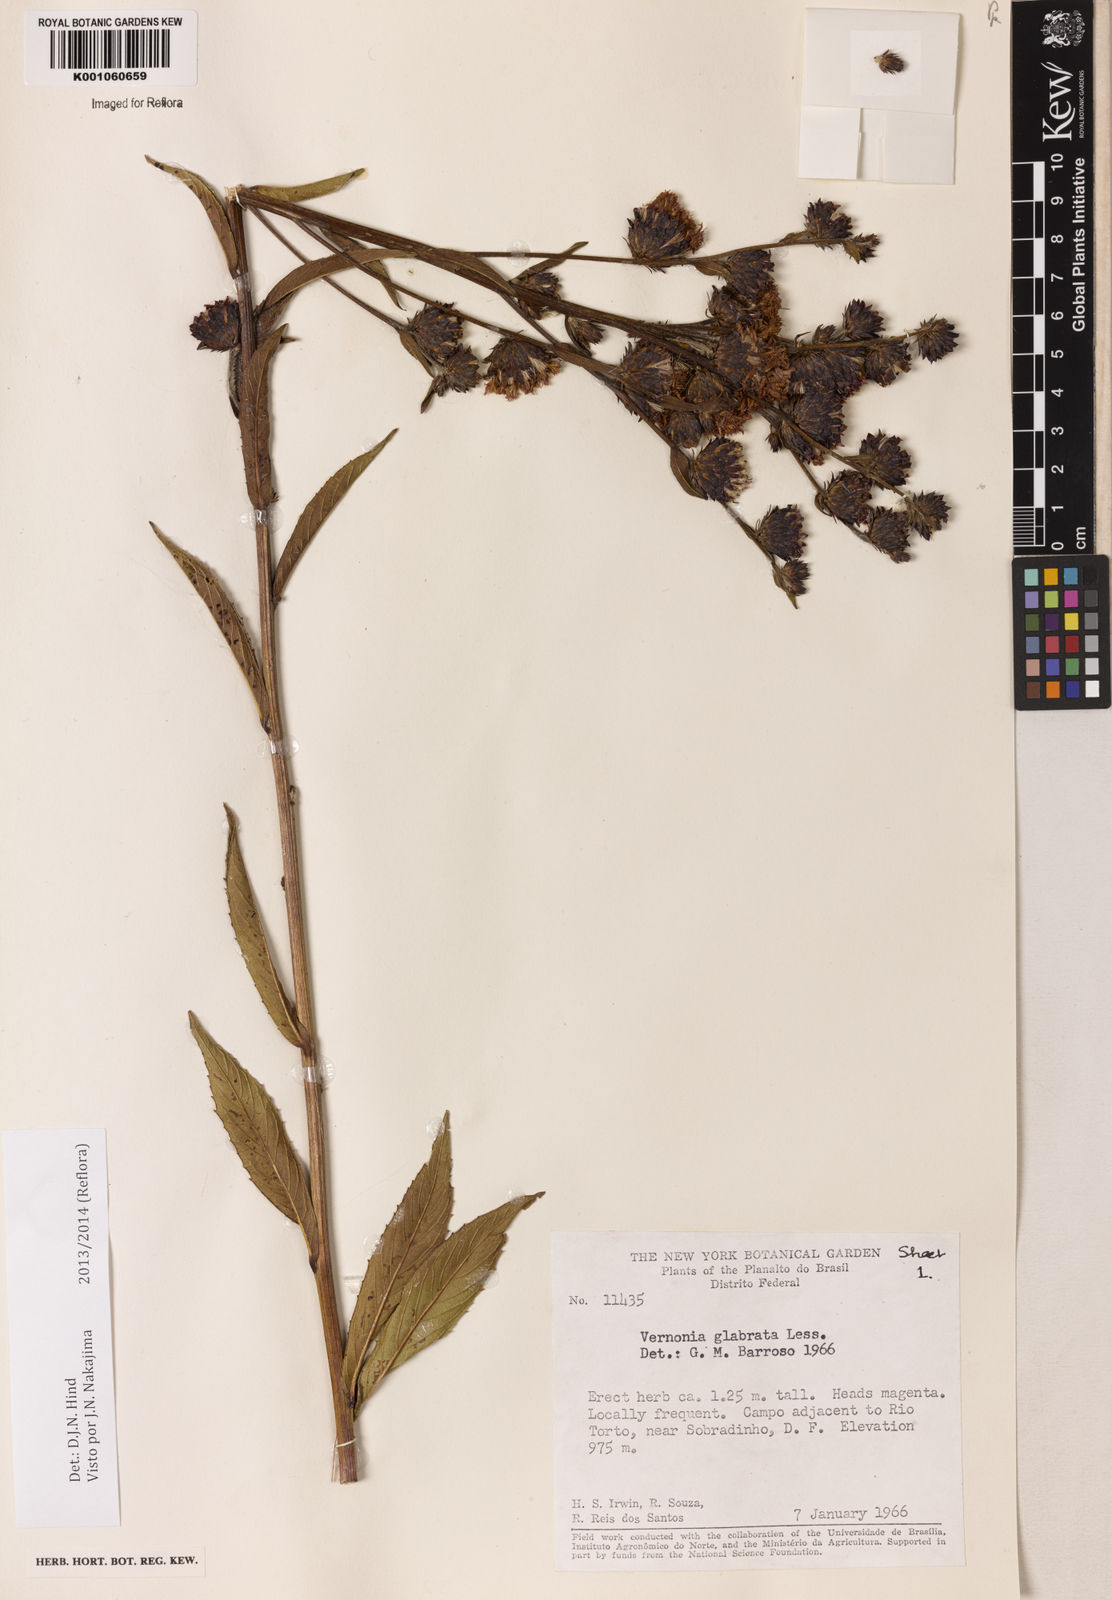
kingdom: Plantae
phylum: Tracheophyta
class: Magnoliopsida
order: Asterales
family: Asteraceae
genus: Lessingianthus
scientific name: Lessingianthus glabratus
